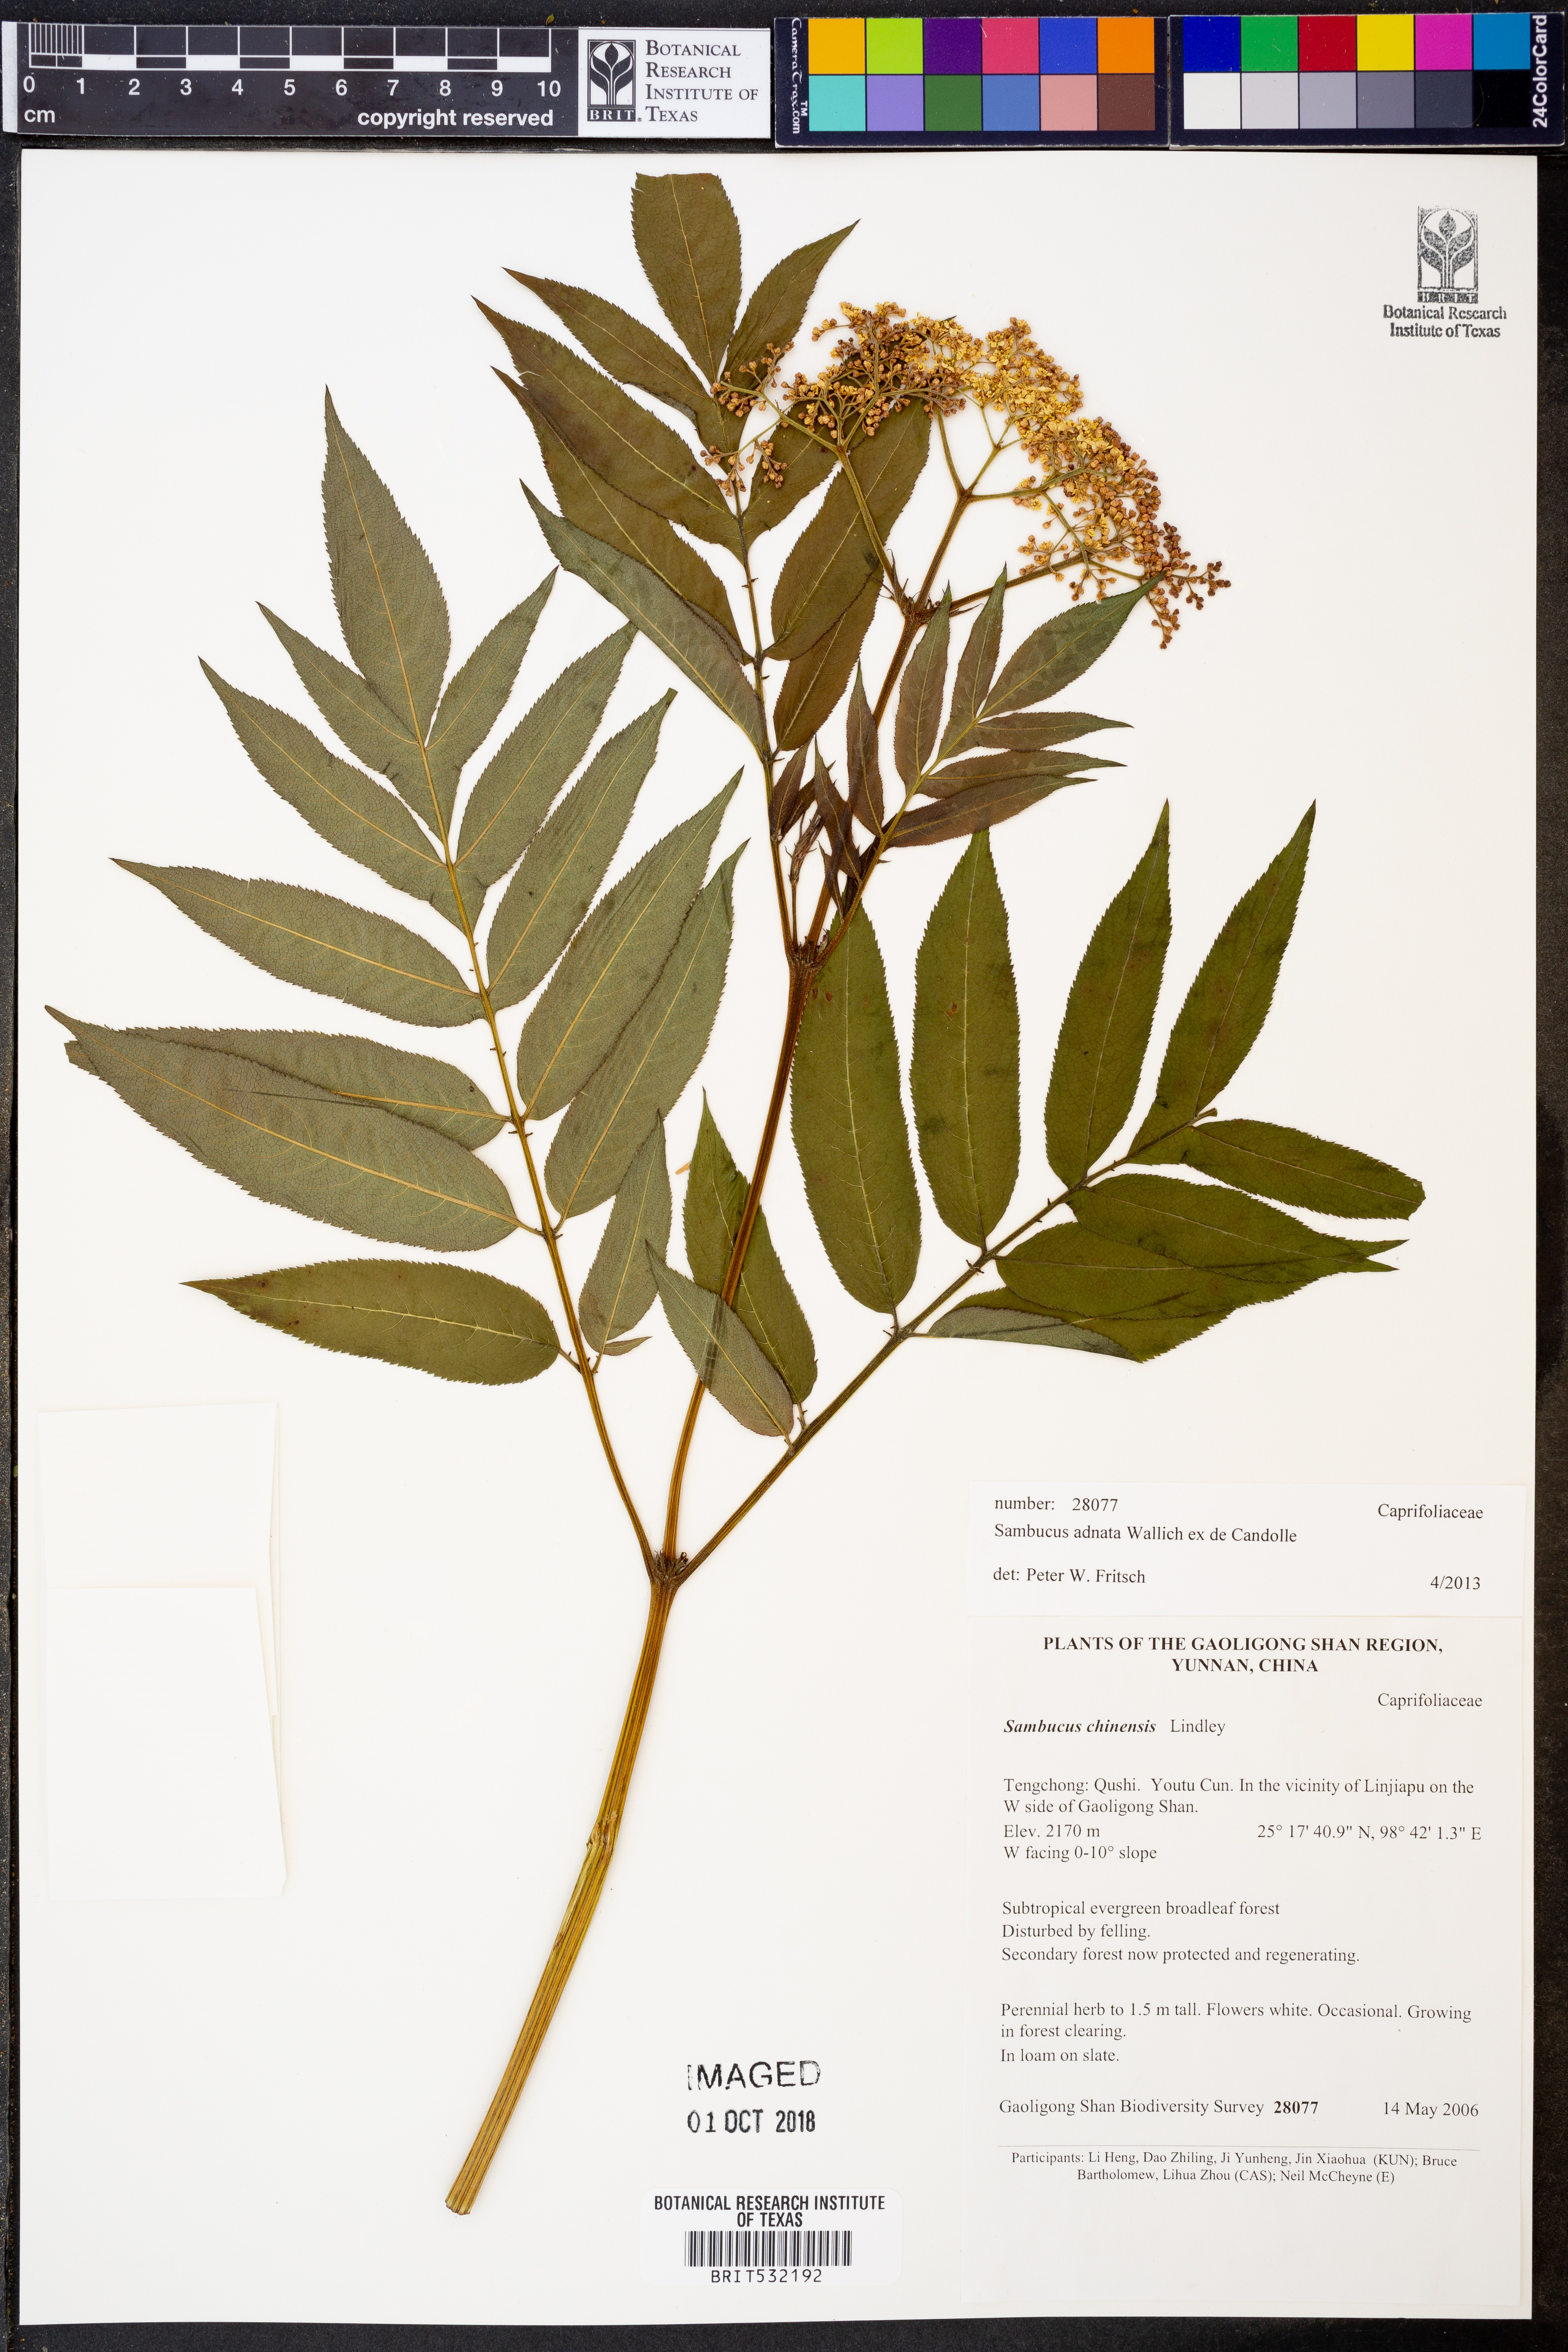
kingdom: Plantae
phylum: Tracheophyta
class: Magnoliopsida
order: Dipsacales
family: Viburnaceae
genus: Sambucus
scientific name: Sambucus adnata
